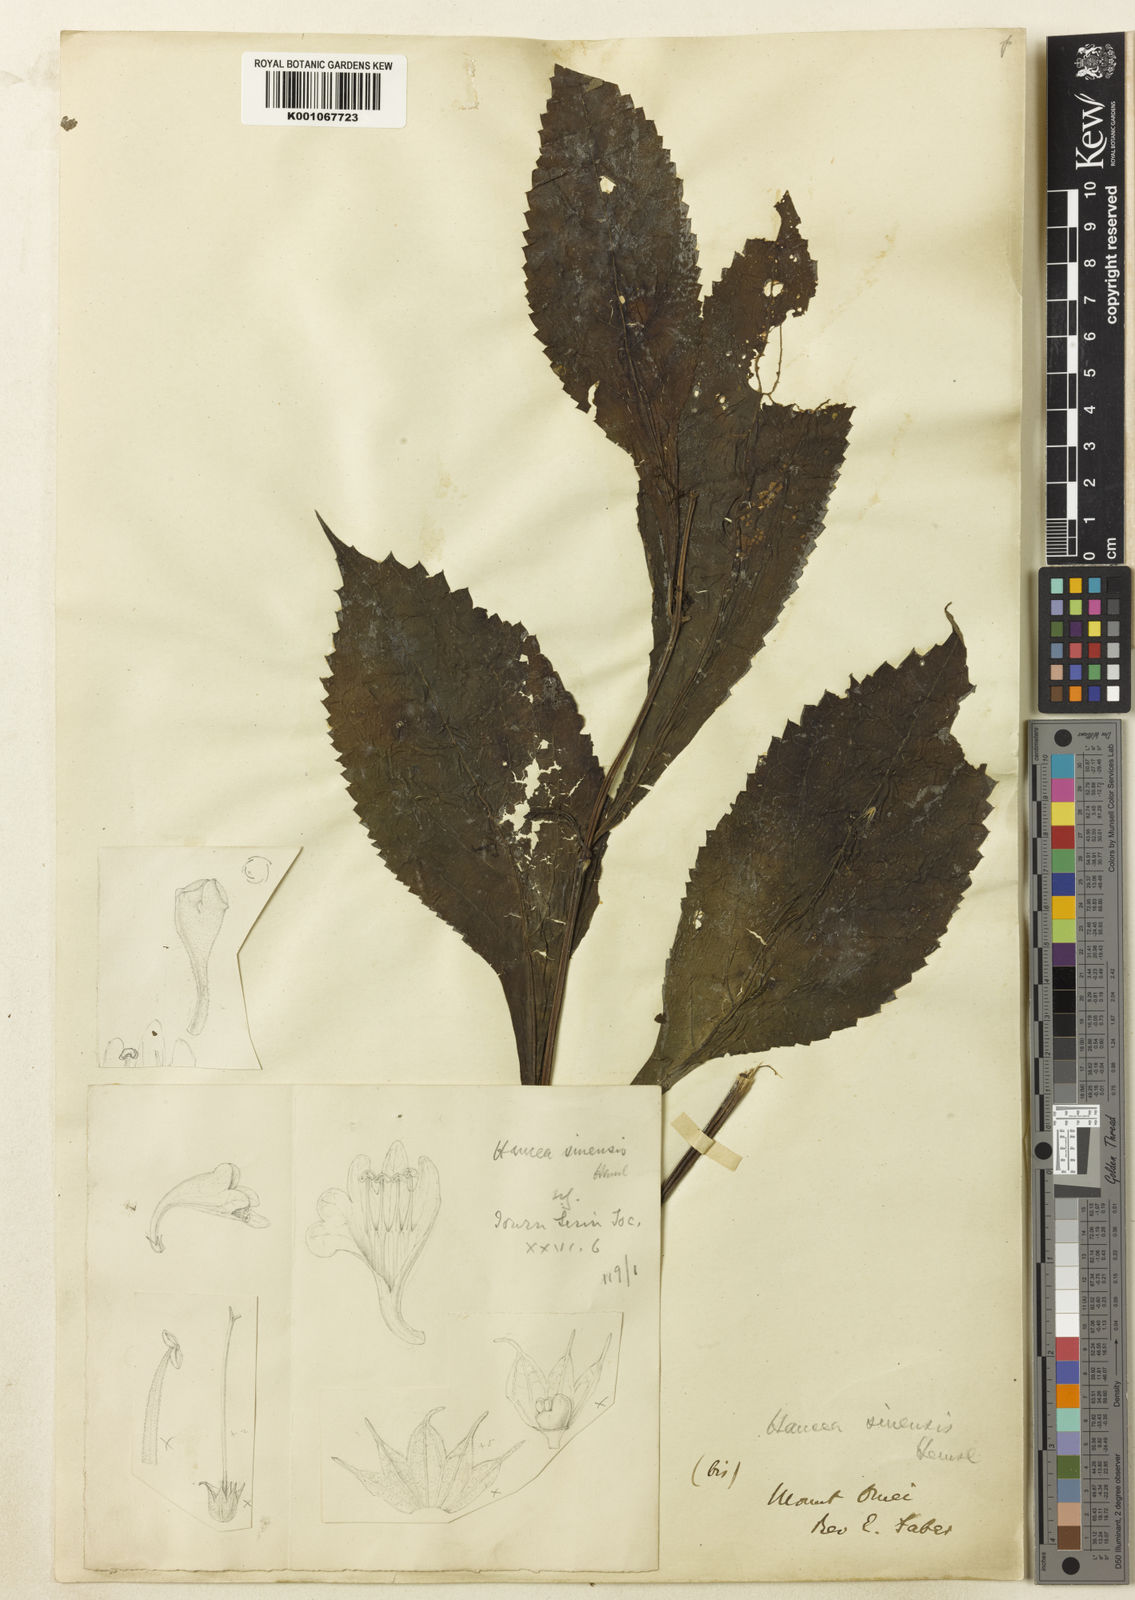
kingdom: Plantae
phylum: Tracheophyta
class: Magnoliopsida
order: Lamiales
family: Lamiaceae
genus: Hanceola
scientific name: Hanceola
